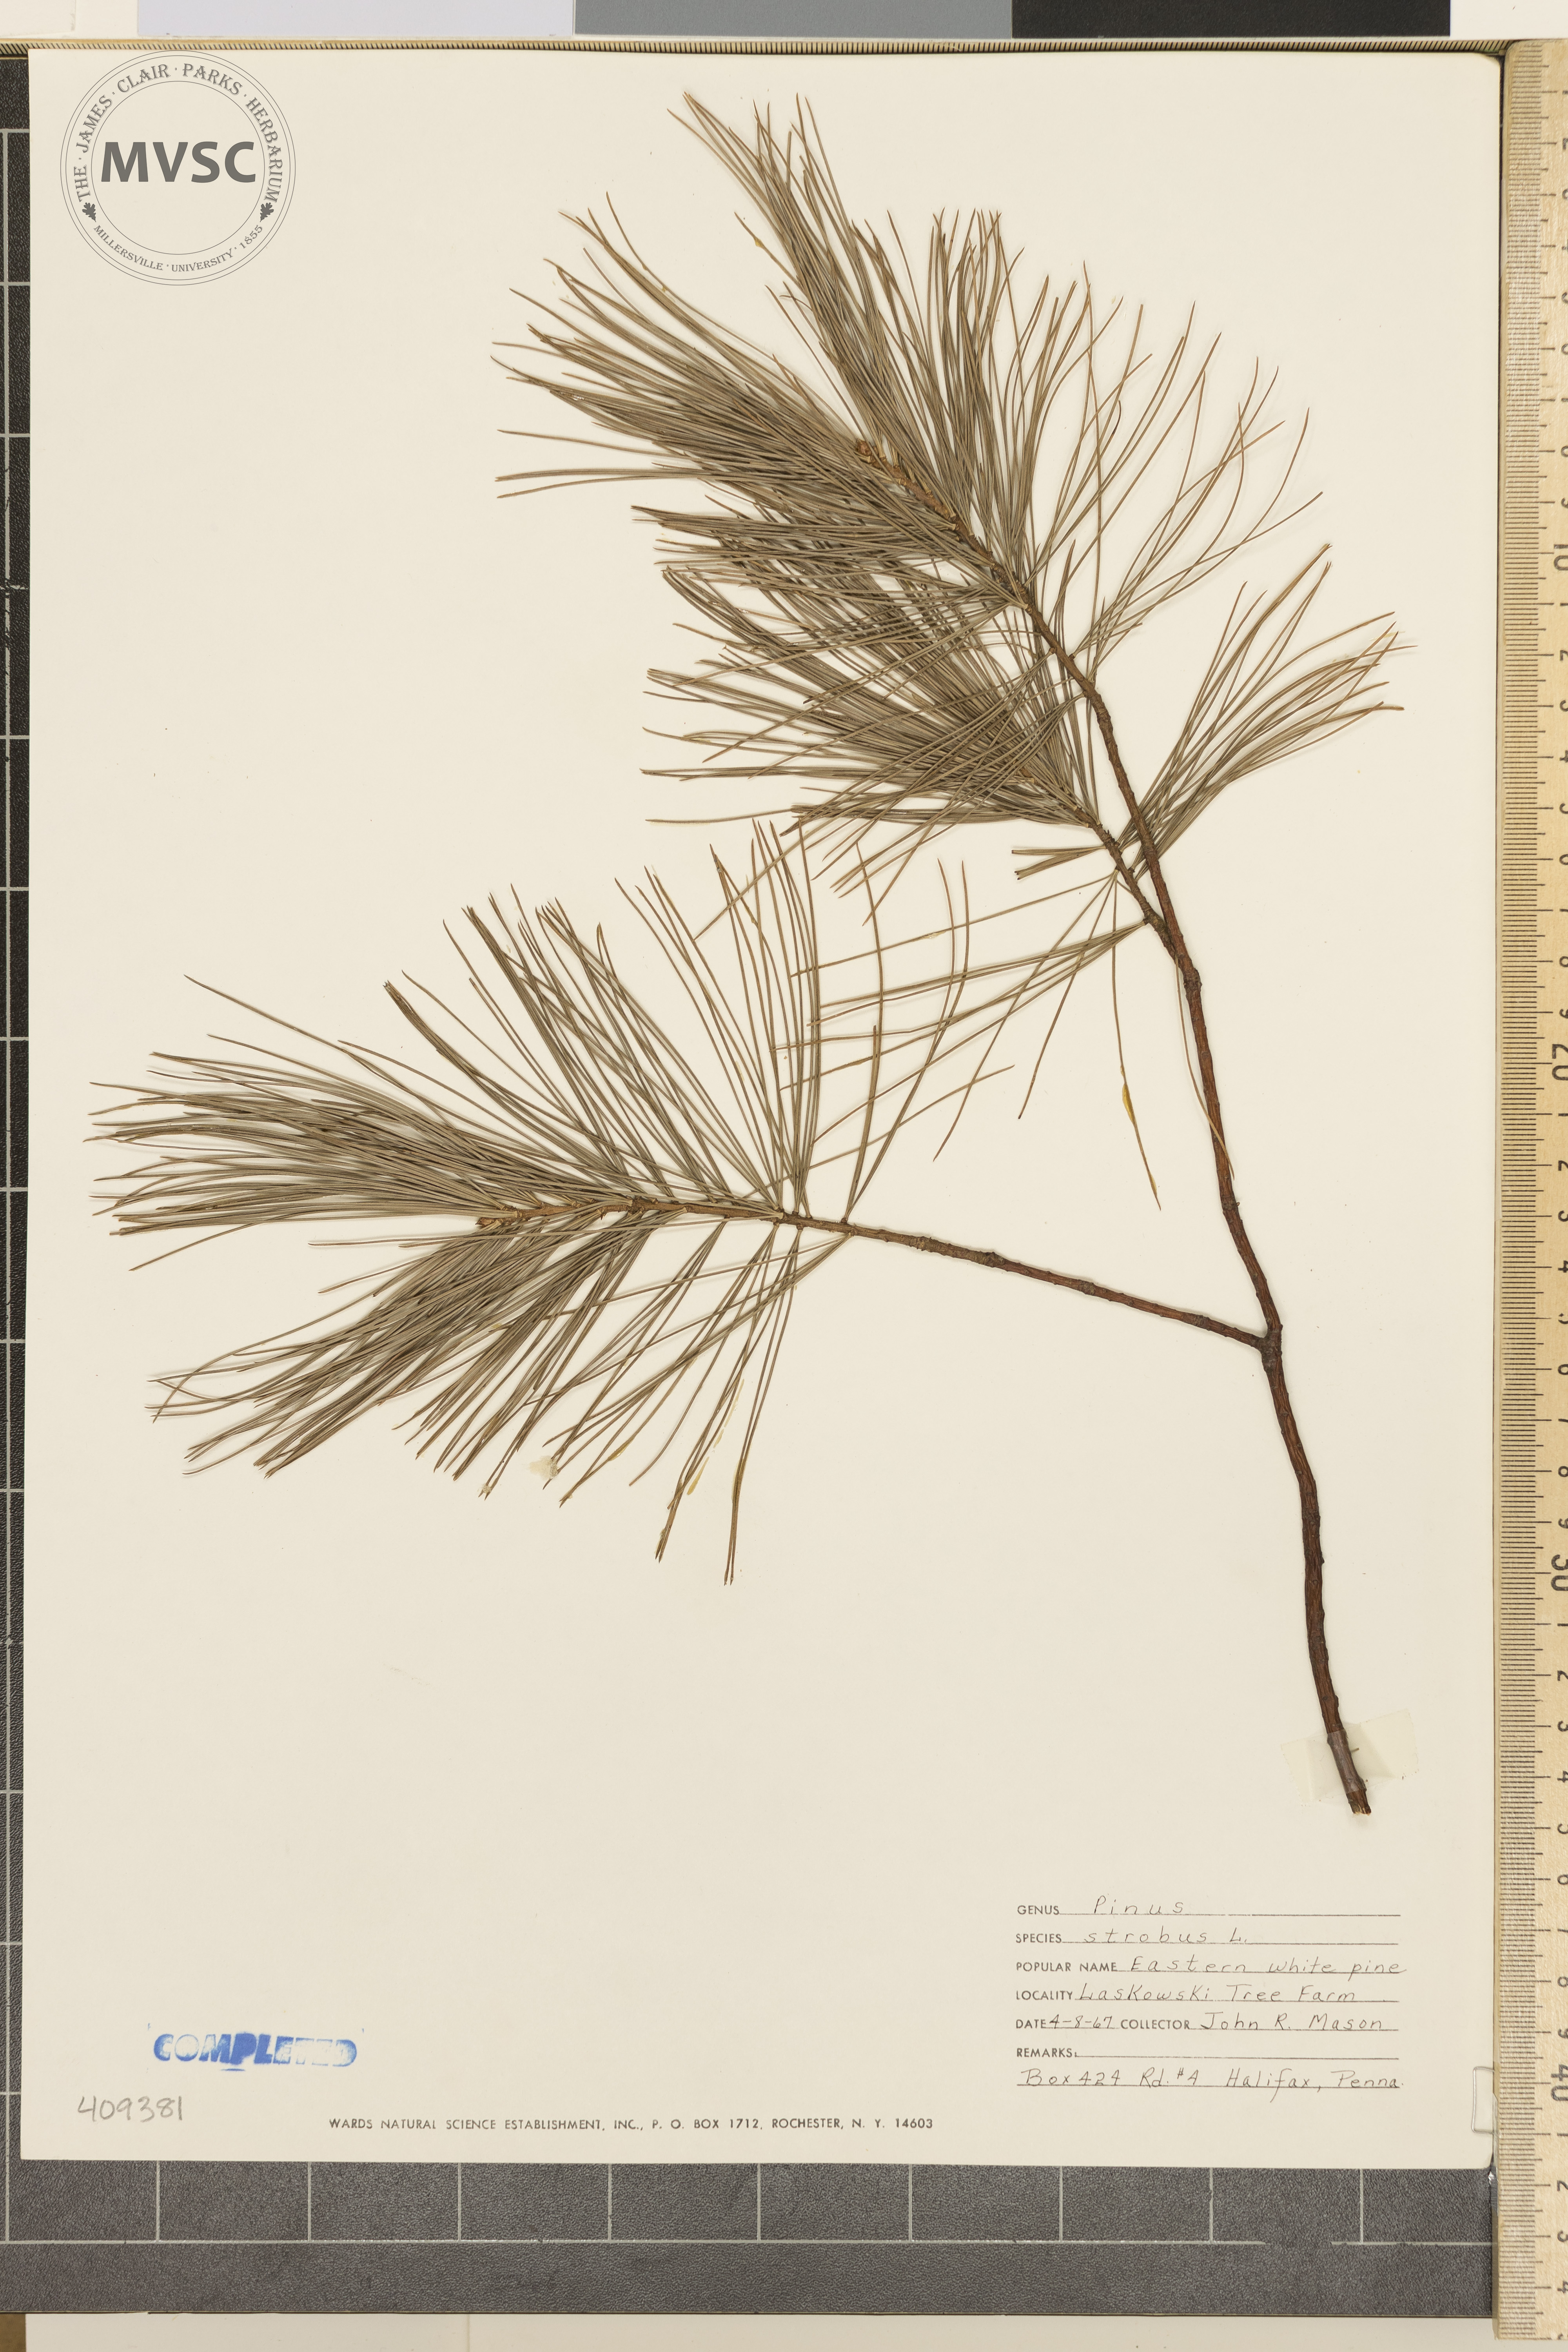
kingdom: Plantae
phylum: Tracheophyta
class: Pinopsida
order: Pinales
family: Pinaceae
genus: Pinus
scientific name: Pinus strobus
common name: Weymouth pine
